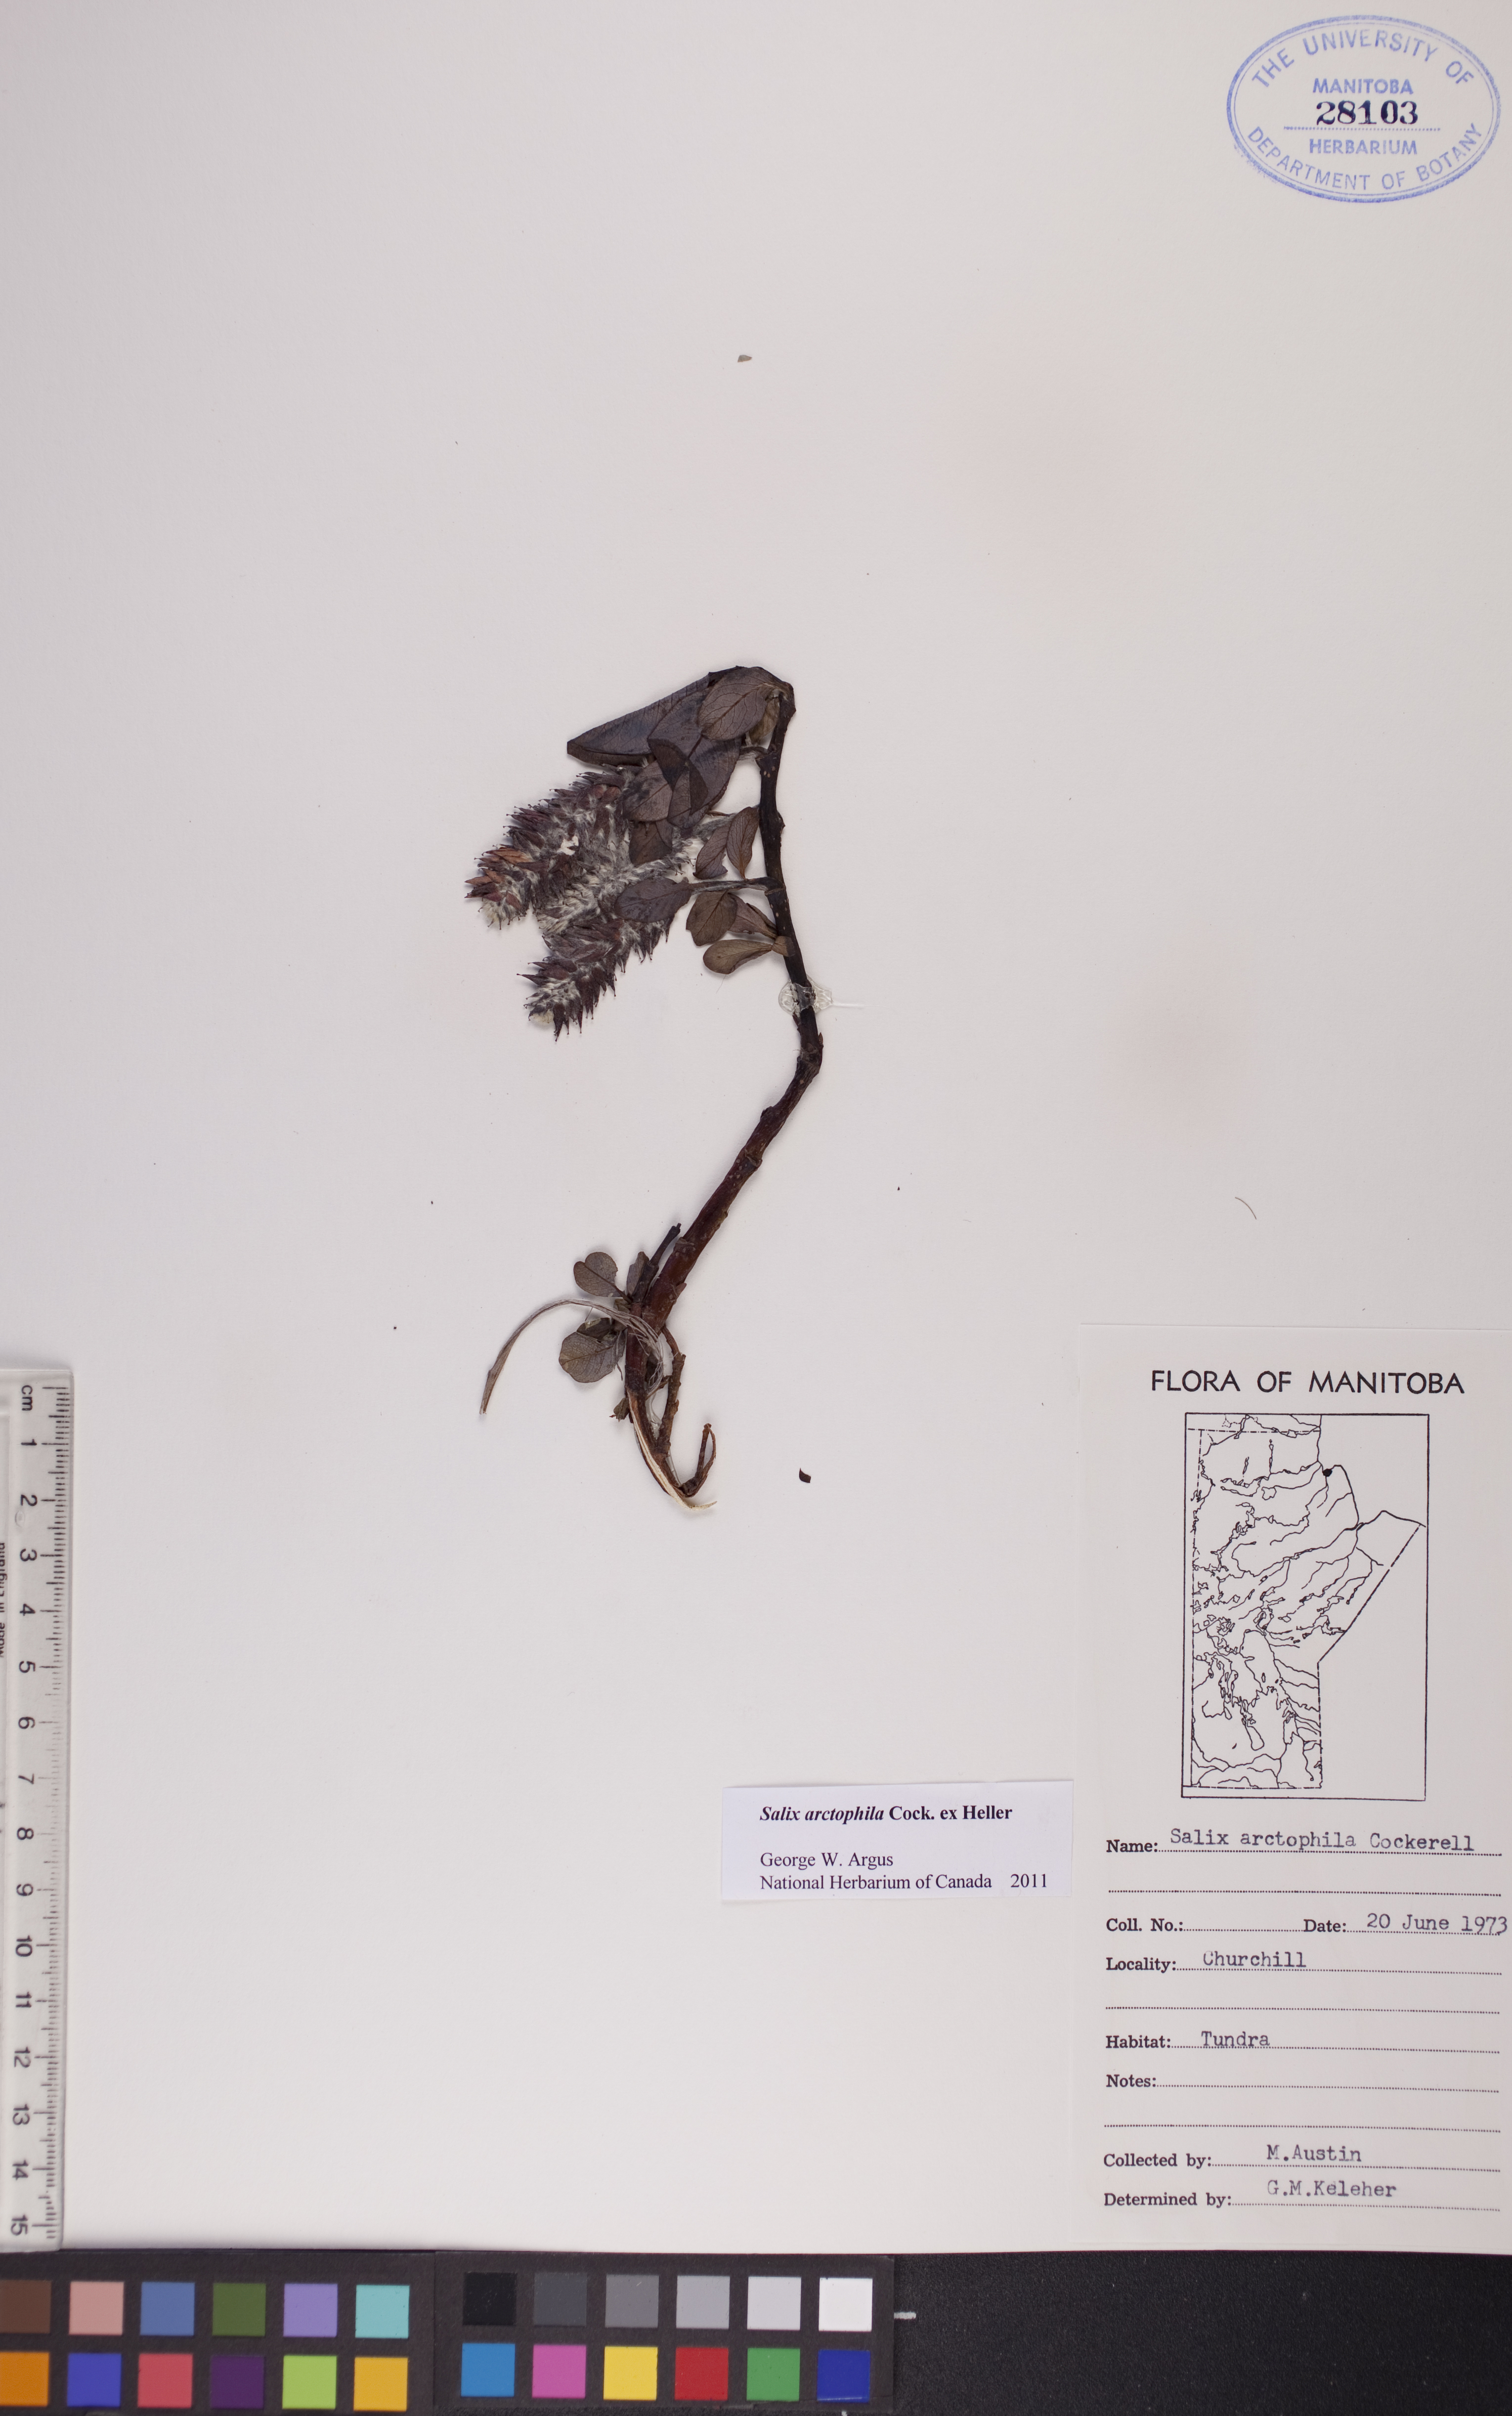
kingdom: Plantae
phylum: Tracheophyta
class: Magnoliopsida
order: Malpighiales
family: Salicaceae
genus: Salix
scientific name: Salix arctophila
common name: Greenland willow
